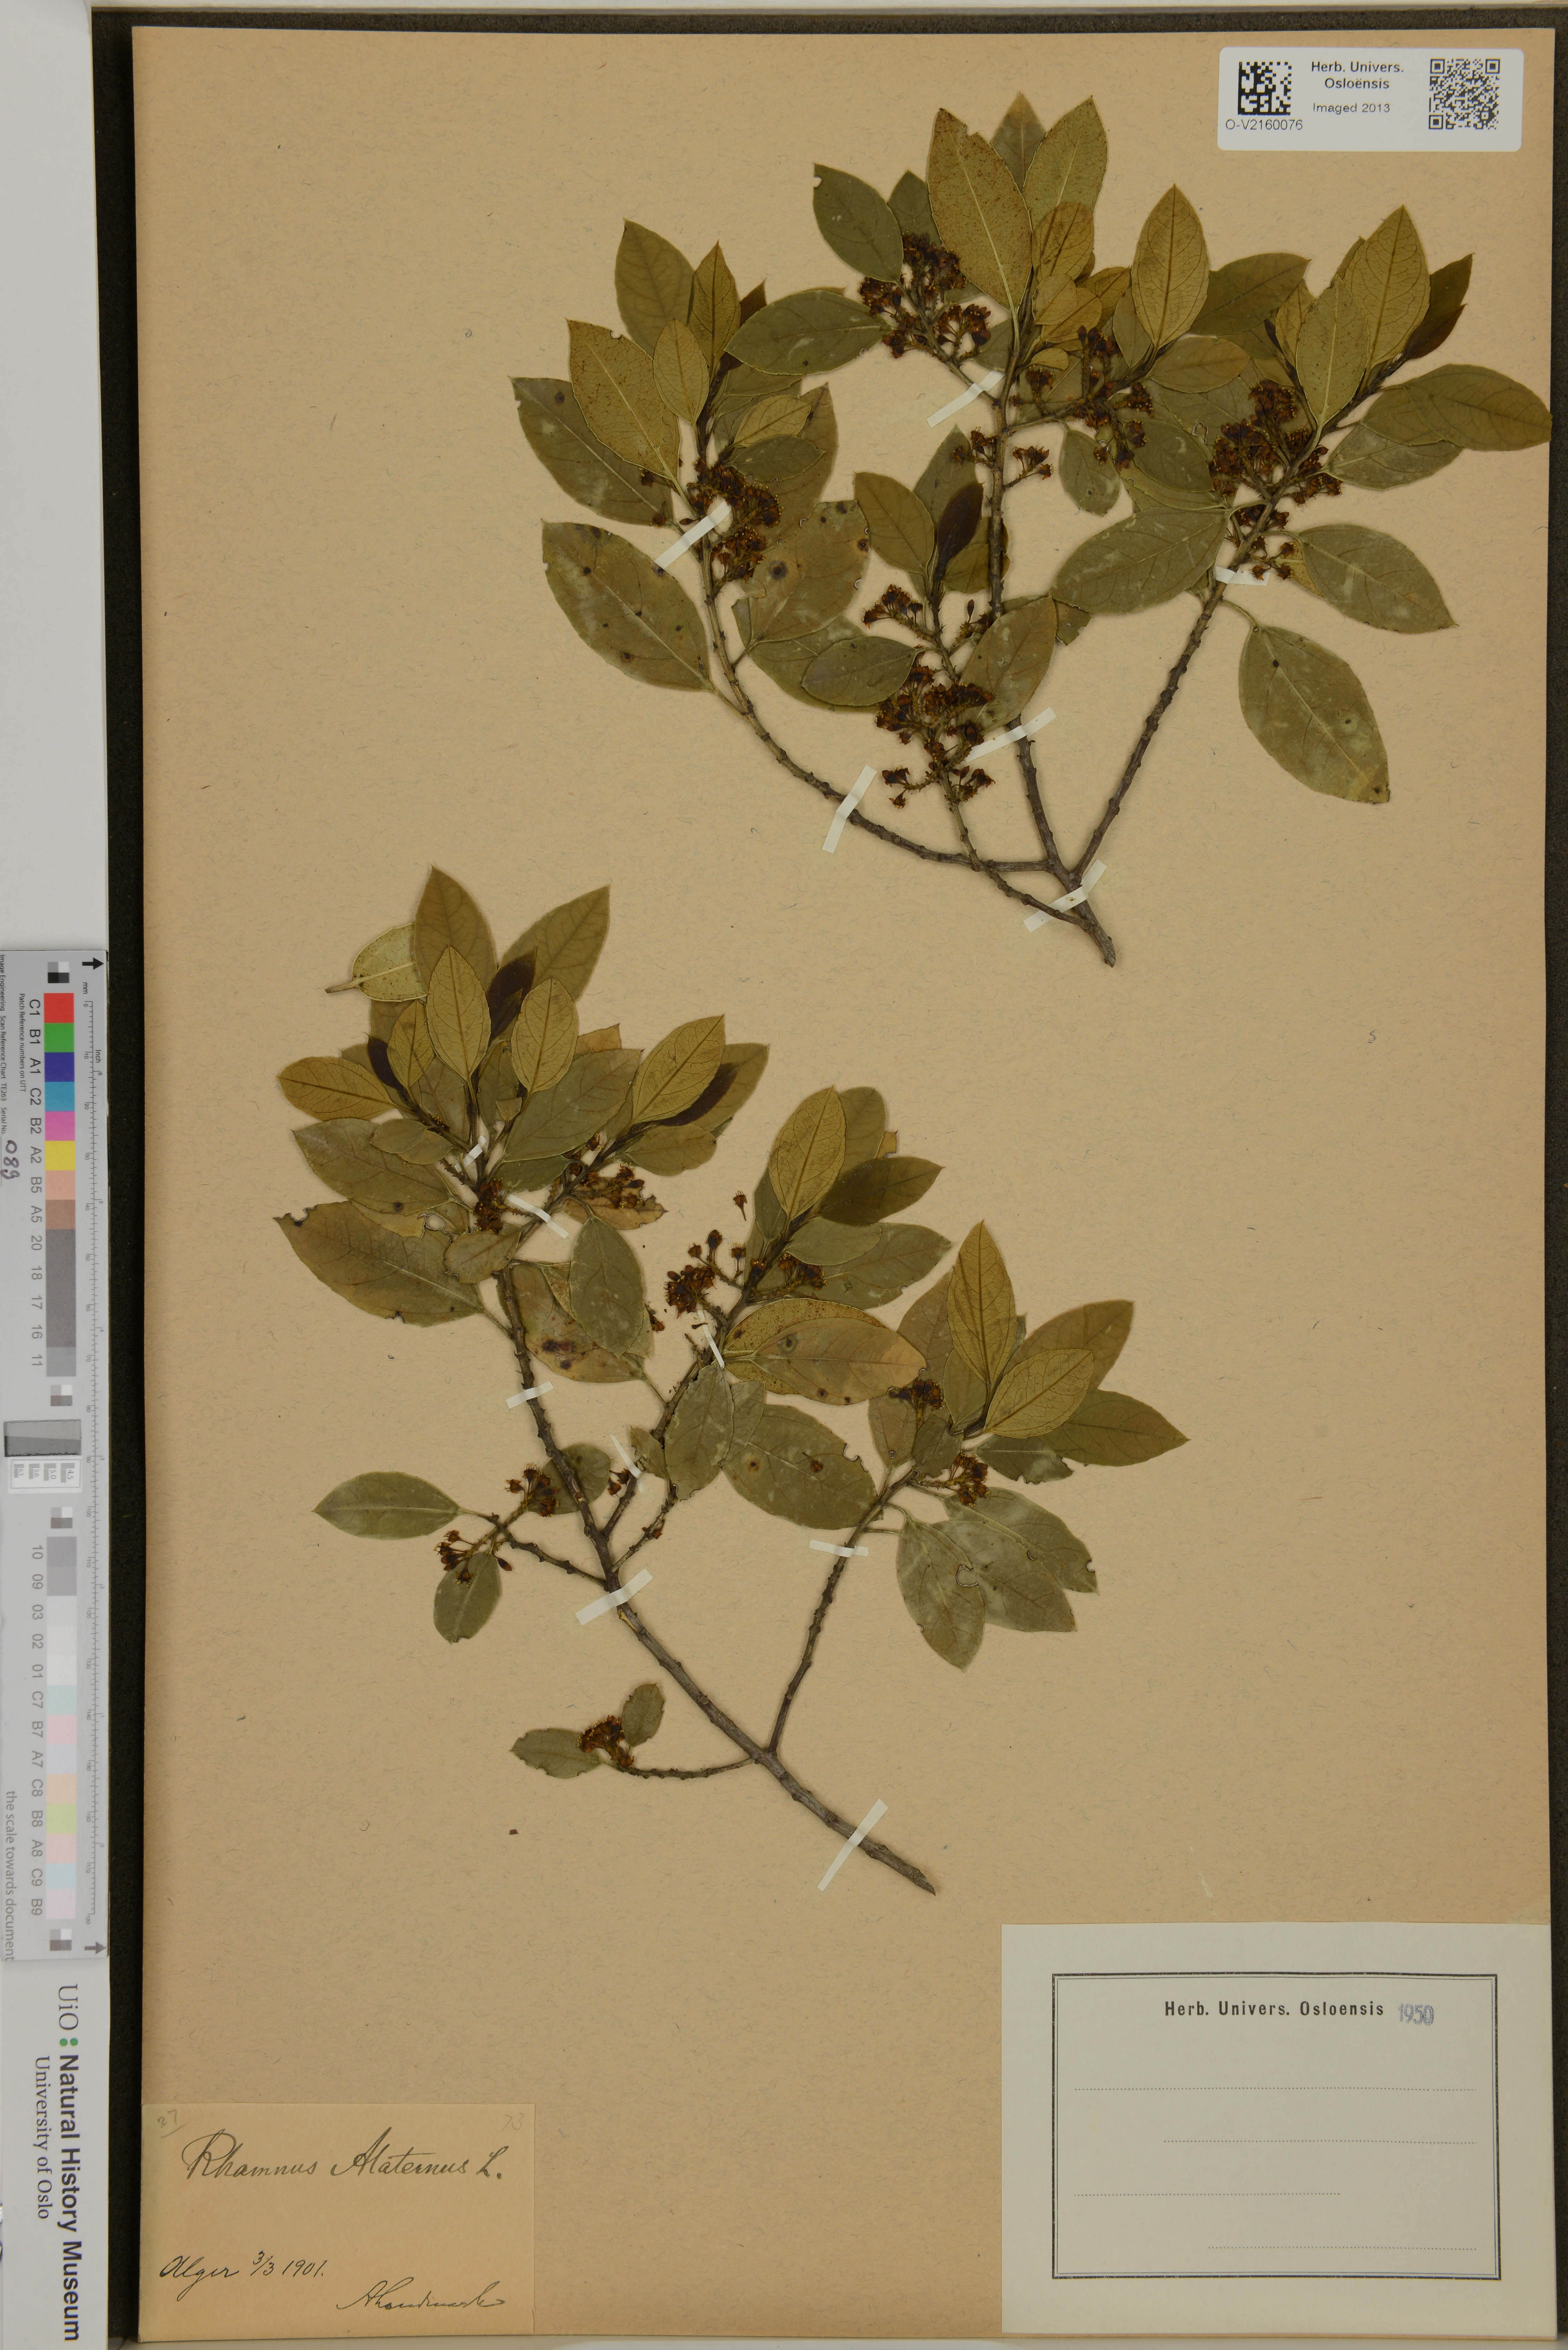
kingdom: Plantae
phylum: Tracheophyta
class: Magnoliopsida
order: Rosales
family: Rhamnaceae
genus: Rhamnus
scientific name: Rhamnus alaternus
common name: Mediterranean buckthorn
